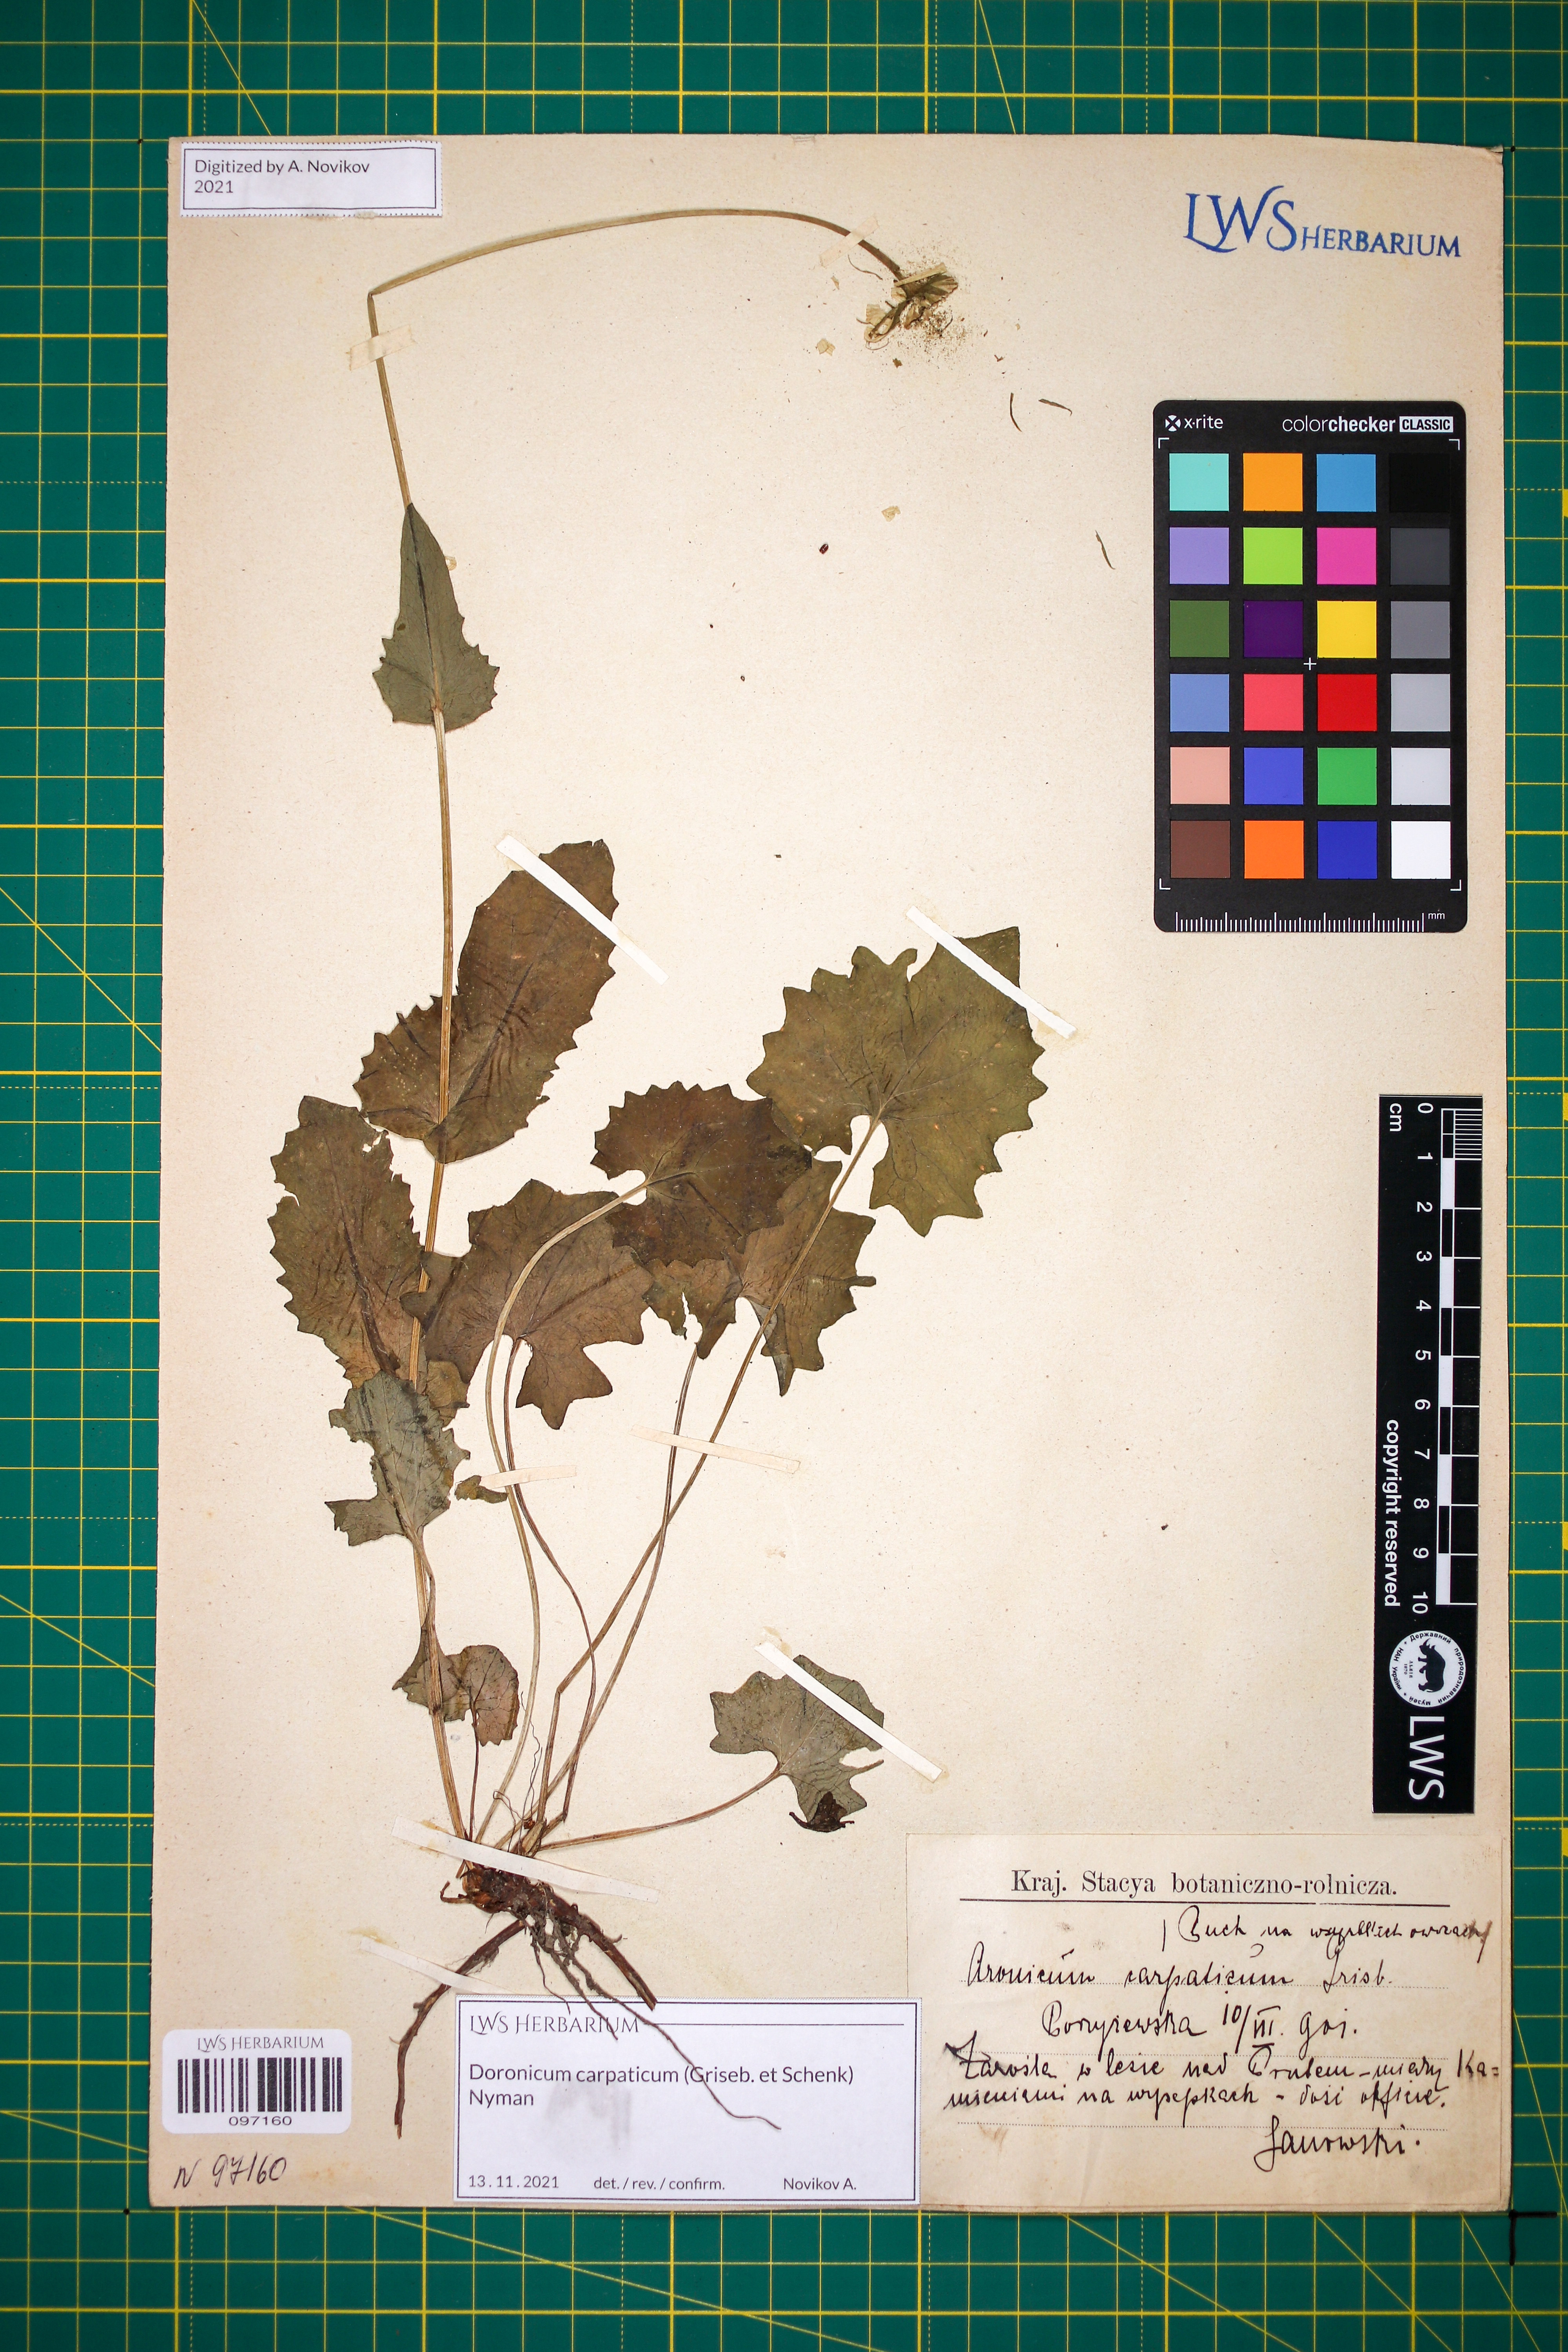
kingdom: Plantae
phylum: Tracheophyta
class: Magnoliopsida
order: Asterales
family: Asteraceae
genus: Doronicum
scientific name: Doronicum carpaticum
